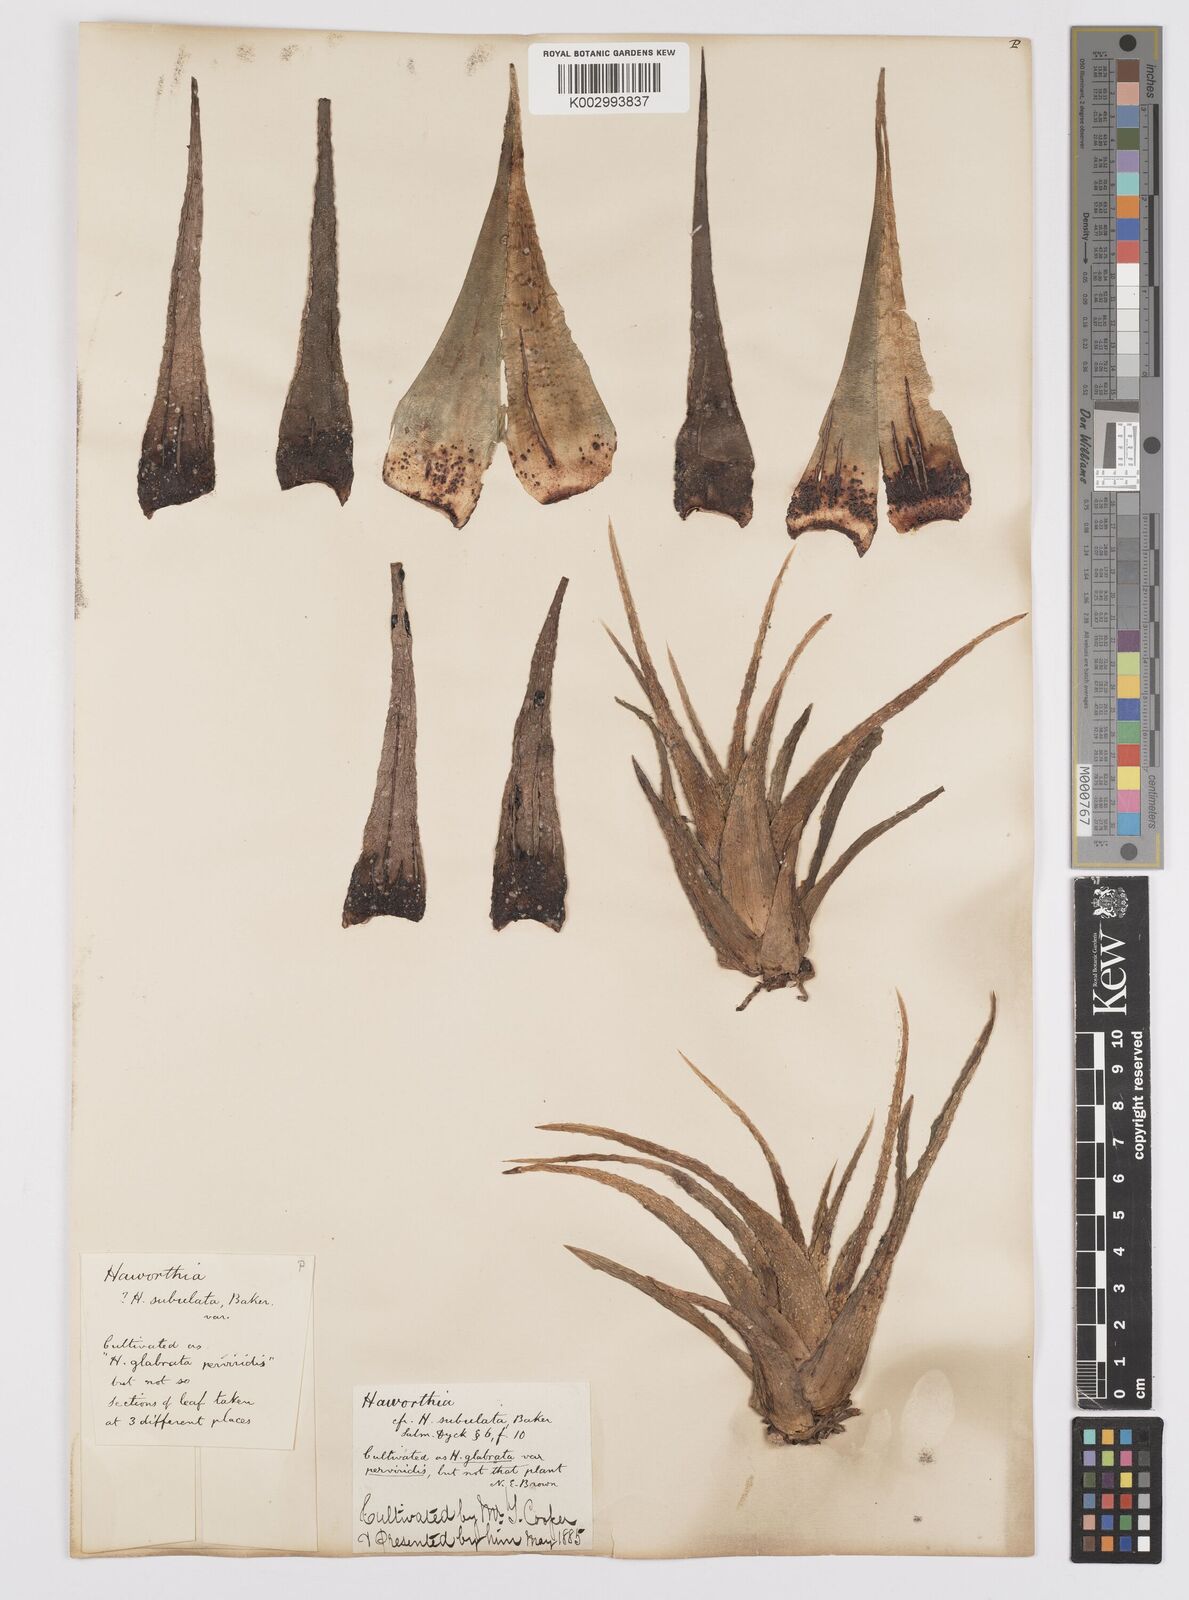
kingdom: Plantae
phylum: Tracheophyta
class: Liliopsida
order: Asparagales
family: Asphodelaceae
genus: Haworthia
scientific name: Haworthia turgida
